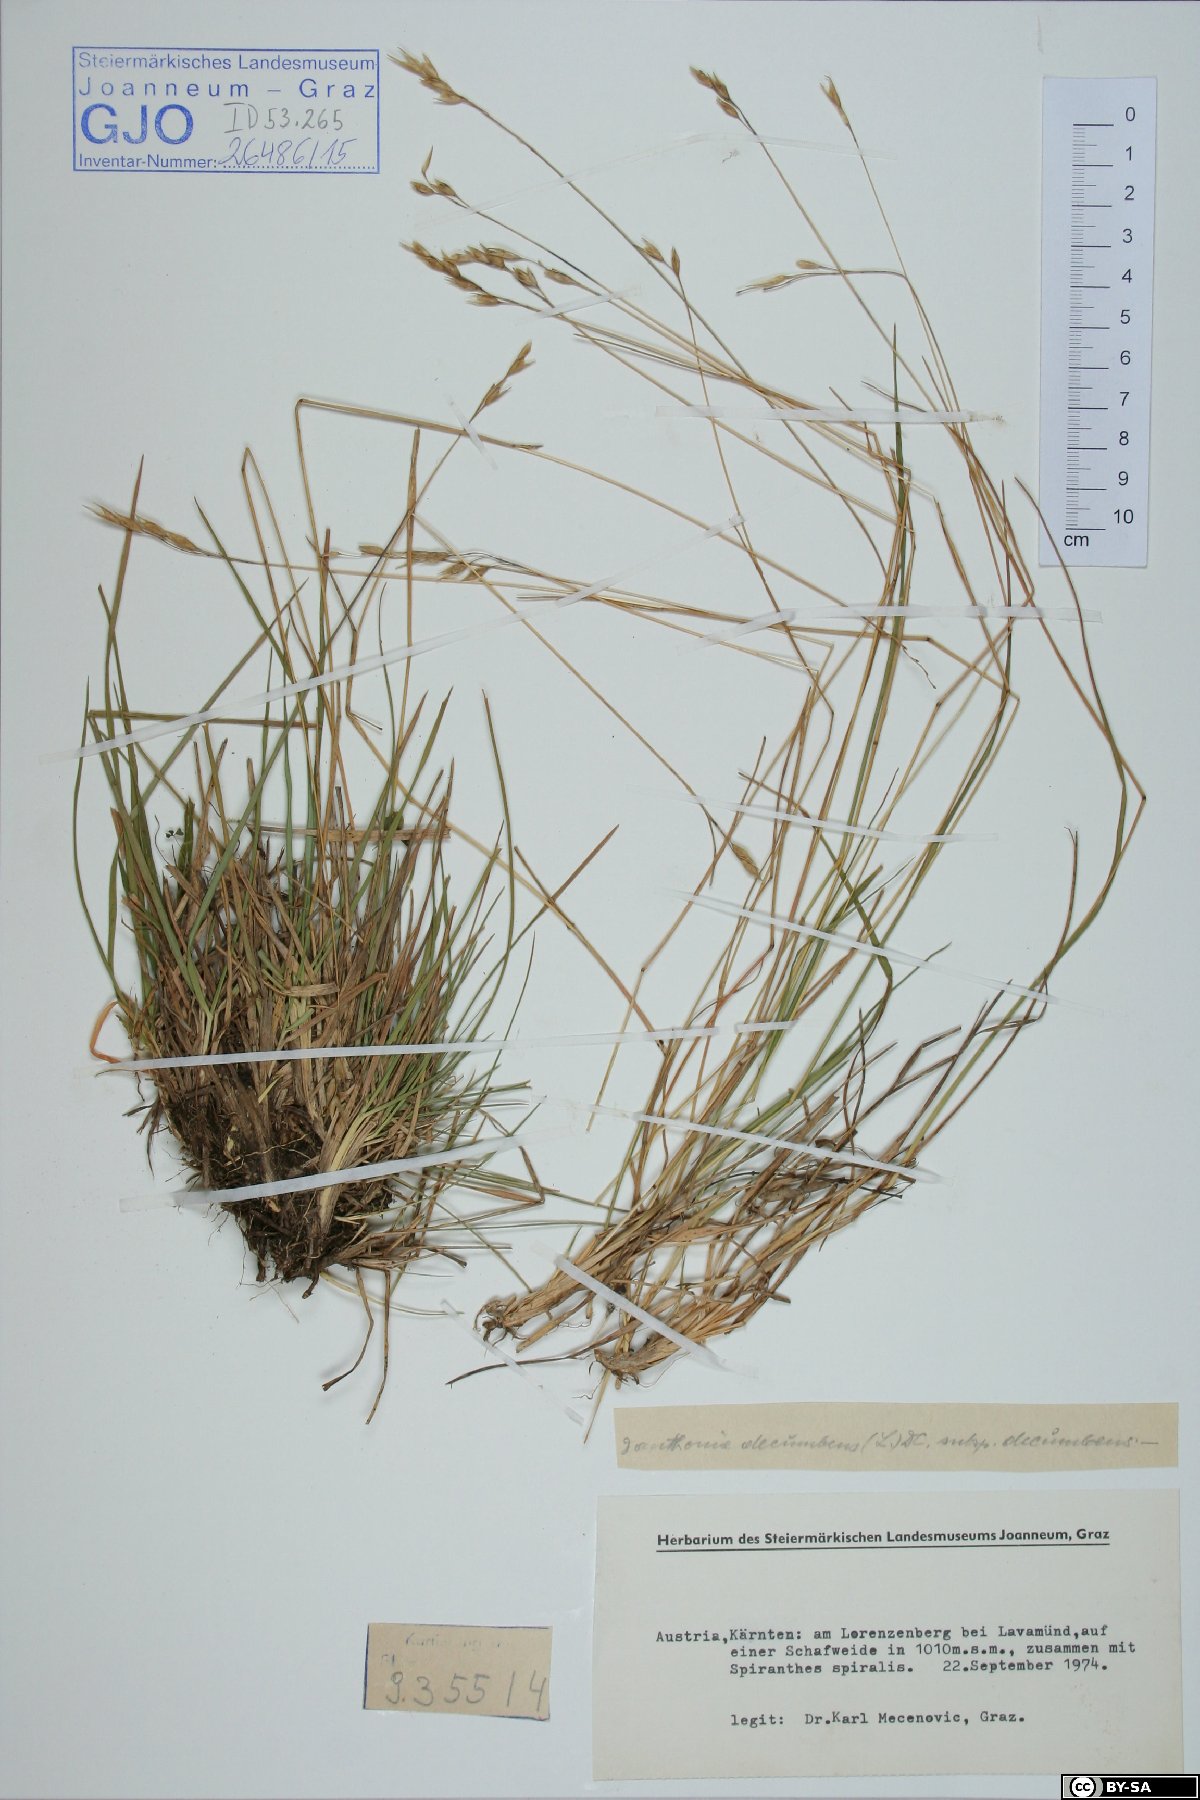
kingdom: Plantae
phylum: Tracheophyta
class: Liliopsida
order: Poales
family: Poaceae
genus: Danthonia
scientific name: Danthonia decumbens
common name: Common heathgrass
